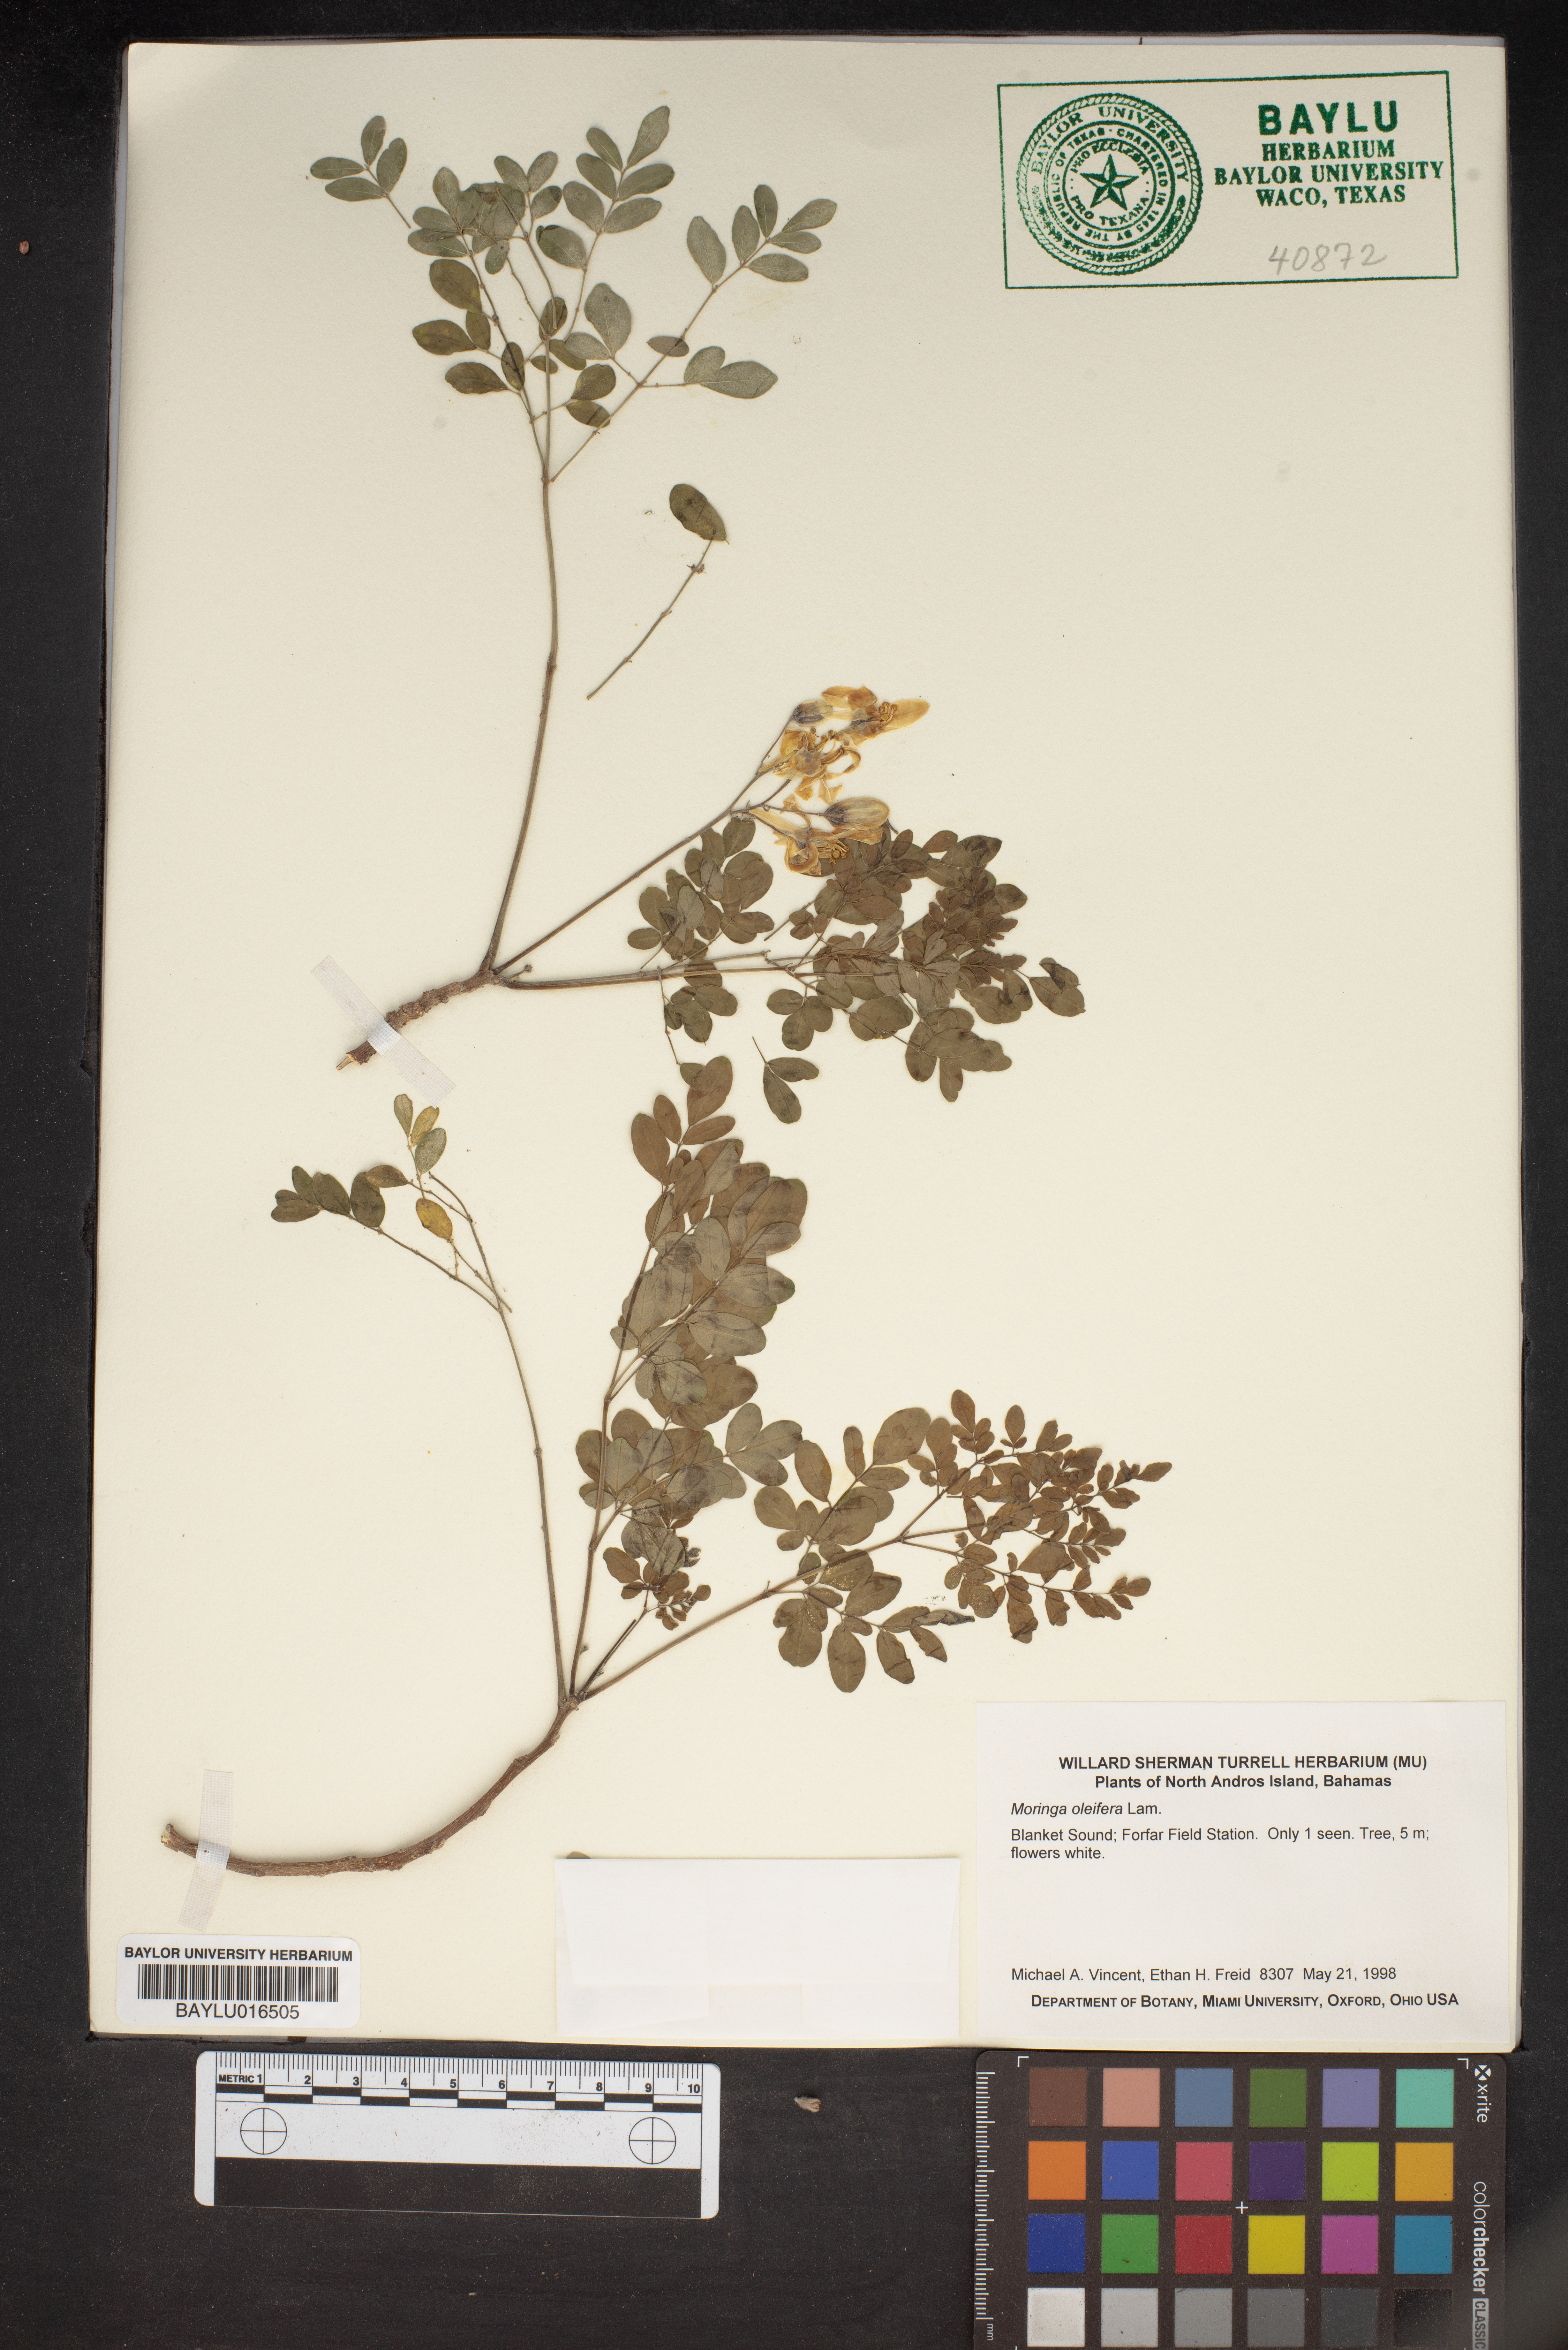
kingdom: Plantae
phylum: Tracheophyta
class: Magnoliopsida
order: Brassicales
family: Moringaceae
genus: Moringa
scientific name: Moringa oleifera
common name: Horseradish-tree
